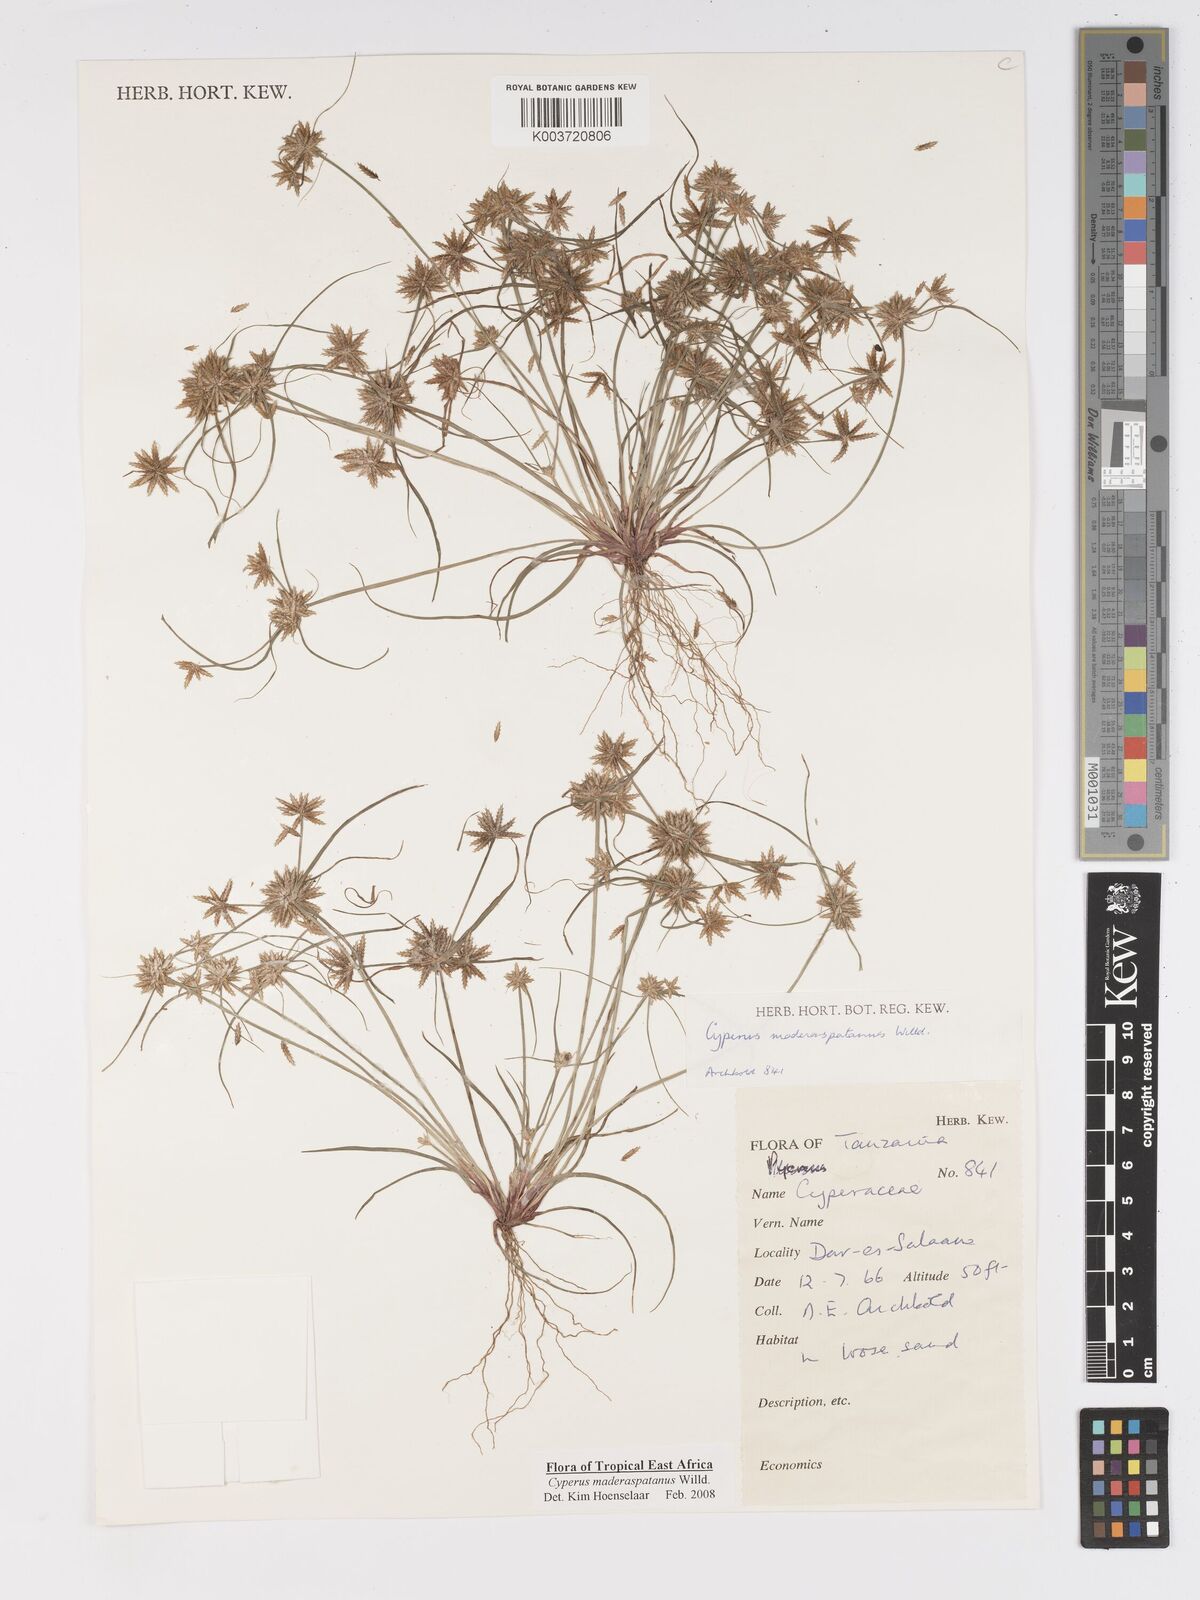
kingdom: Plantae
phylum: Tracheophyta
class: Liliopsida
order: Poales
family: Cyperaceae
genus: Cyperus
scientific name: Cyperus maderaspatanus
